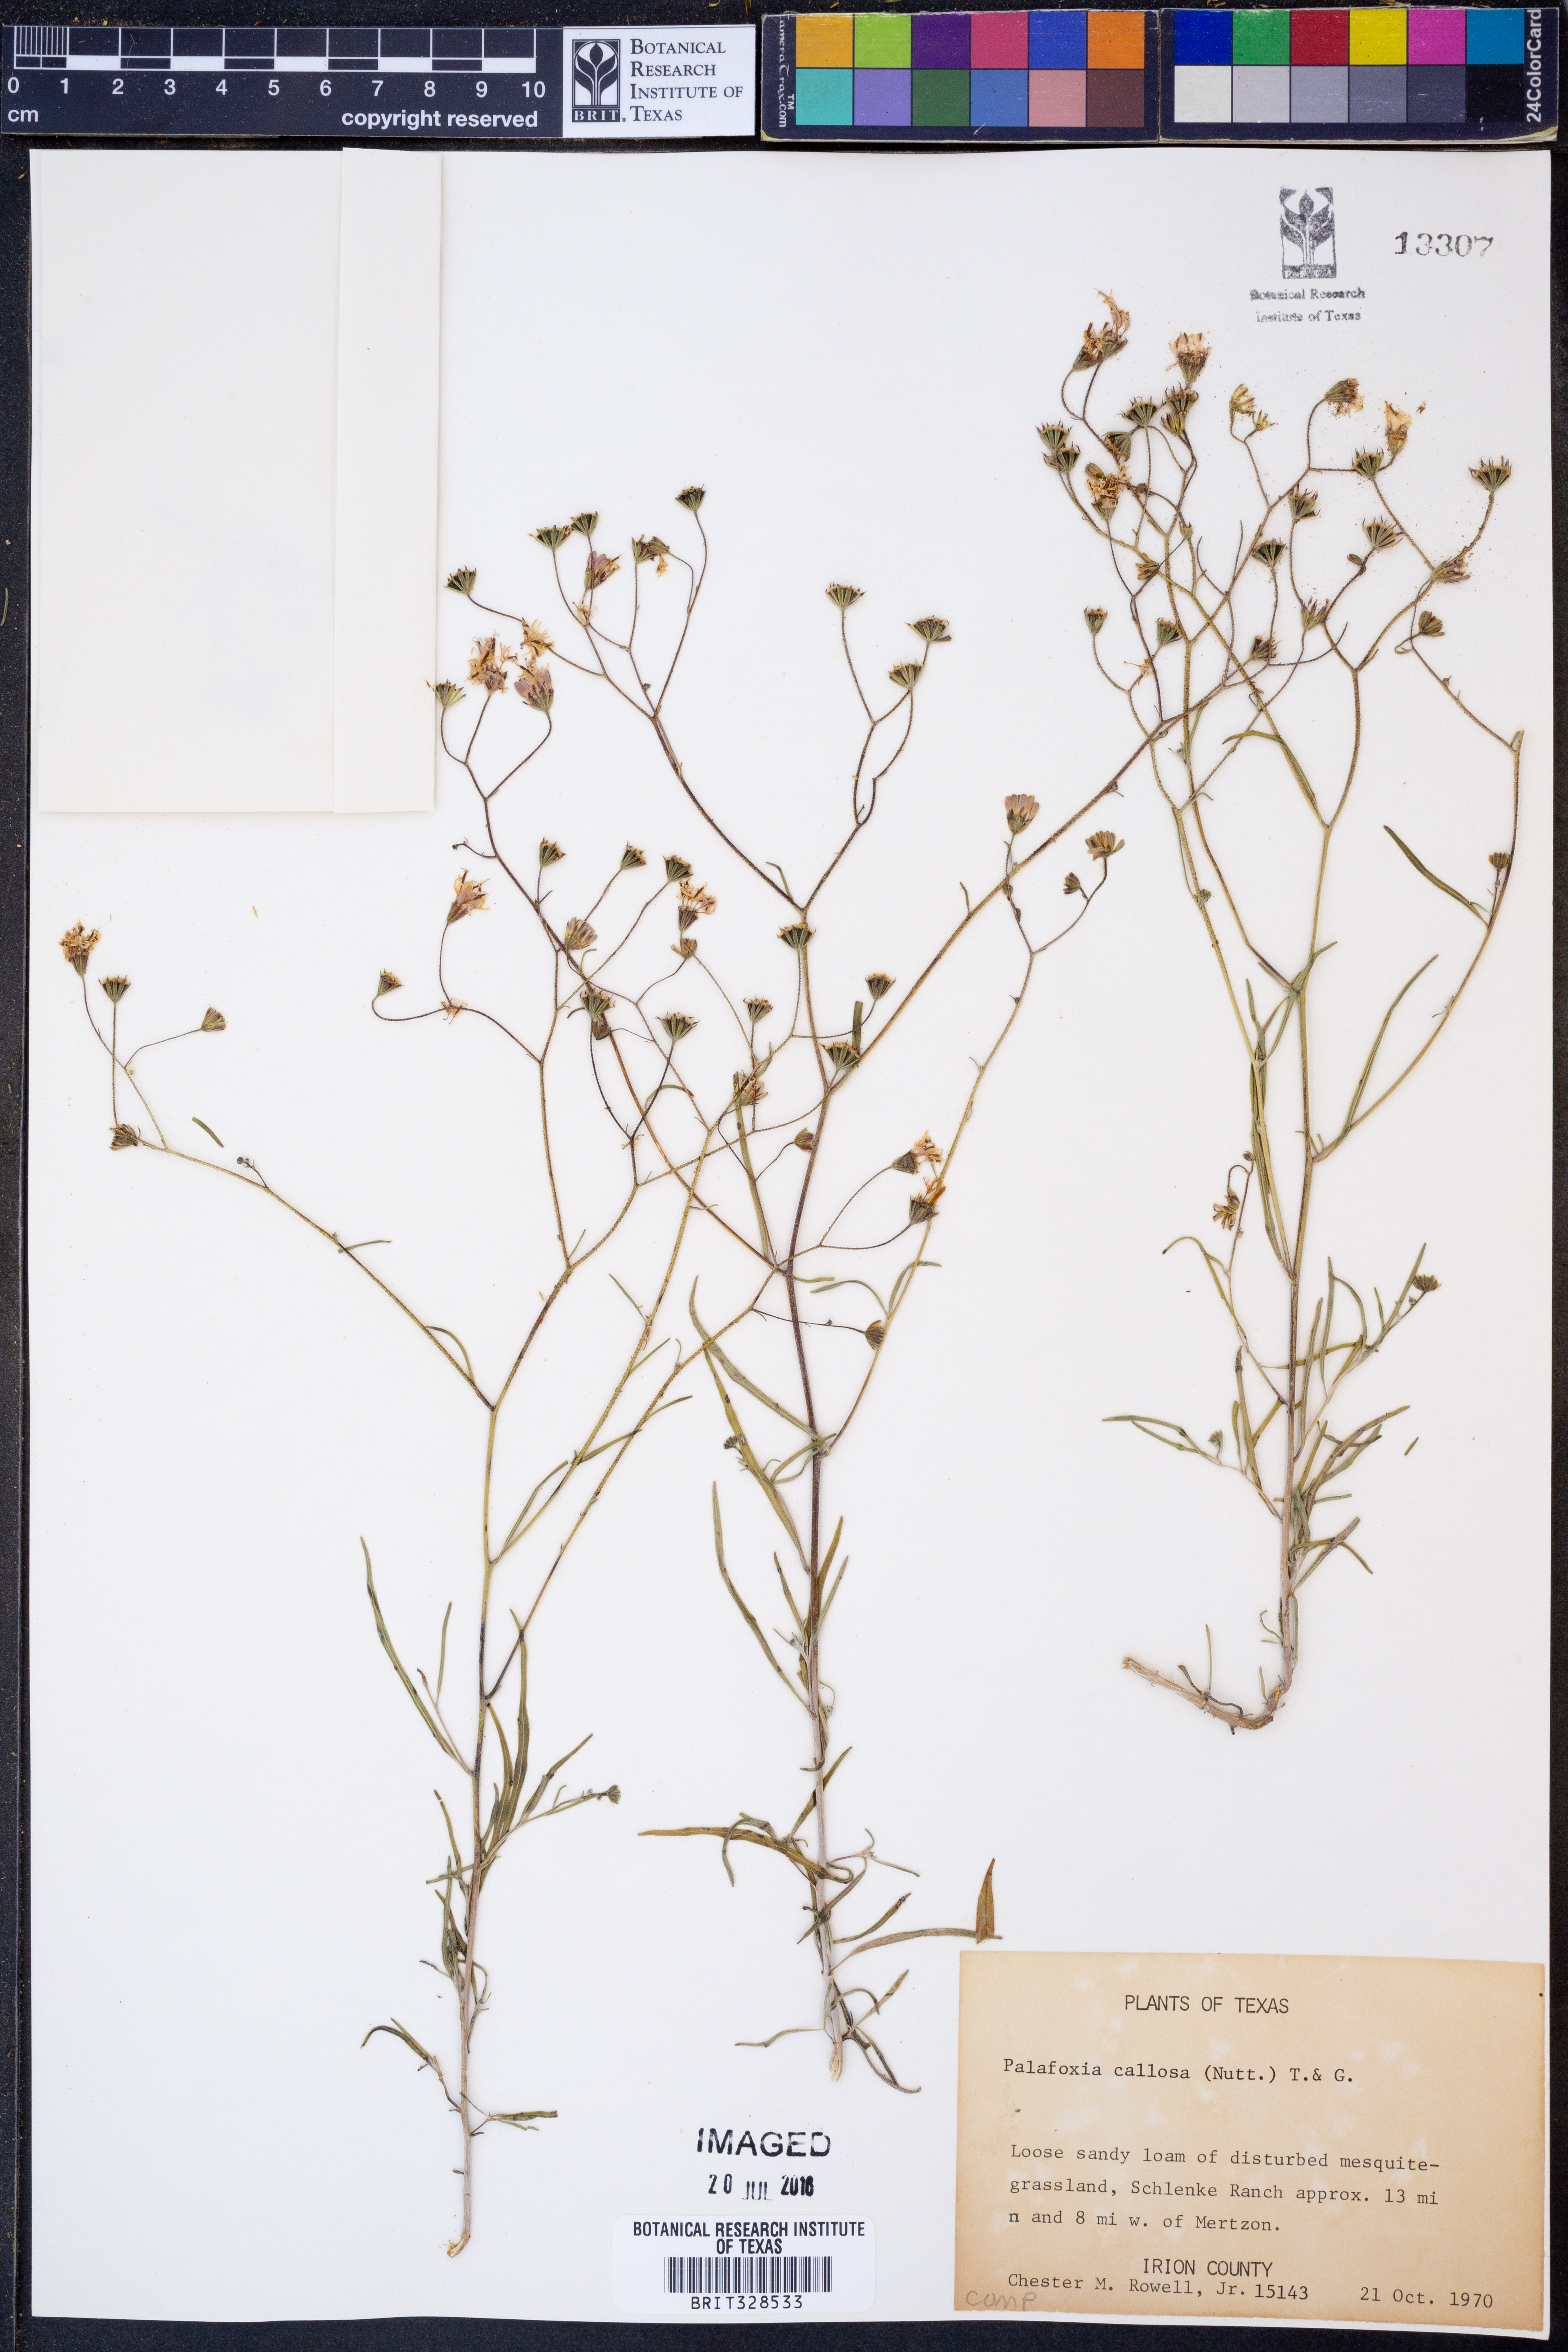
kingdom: Plantae
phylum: Tracheophyta
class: Magnoliopsida
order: Asterales
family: Asteraceae
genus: Palafoxia
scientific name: Palafoxia callosa
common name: Small palafox
